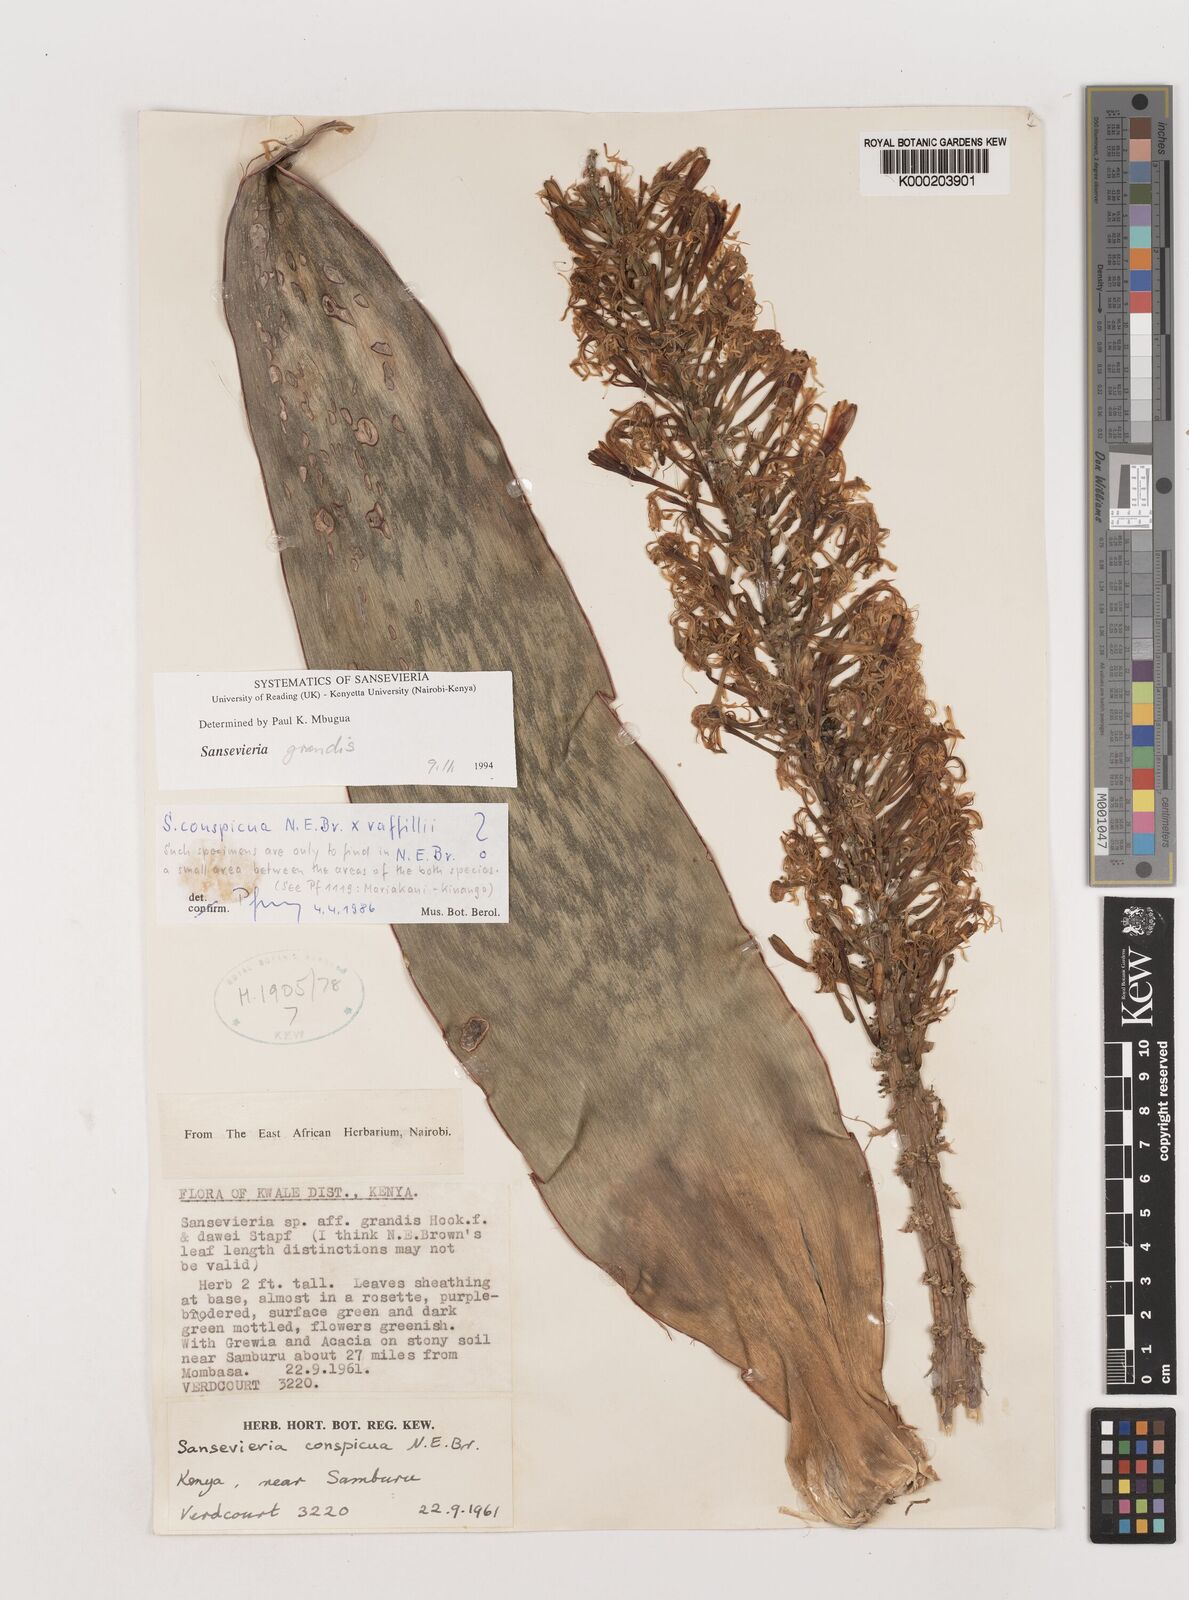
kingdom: Plantae
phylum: Tracheophyta
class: Liliopsida
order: Asparagales
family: Asparagaceae
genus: Dracaena
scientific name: Dracaena conspicua
